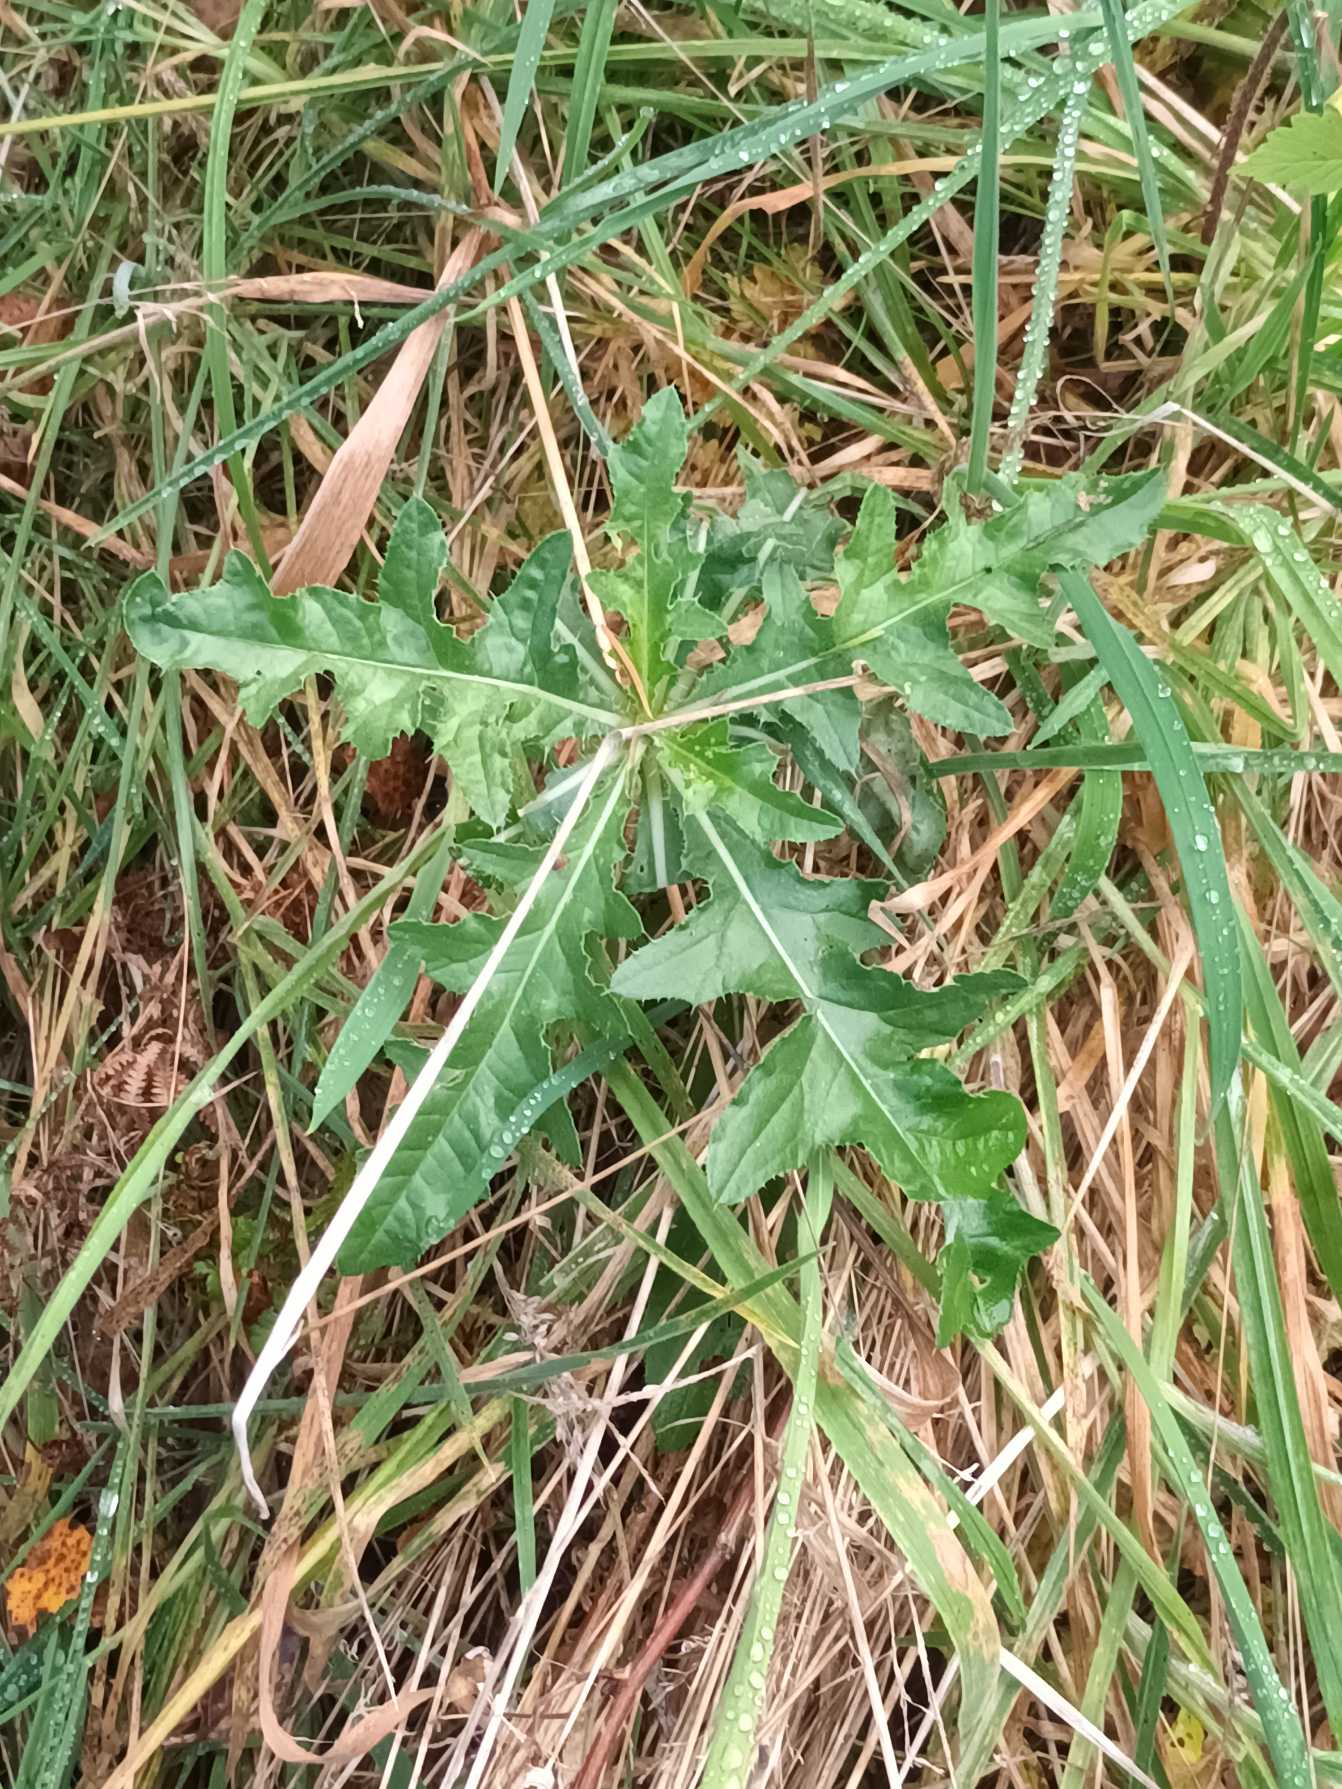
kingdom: Plantae
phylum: Tracheophyta
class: Magnoliopsida
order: Asterales
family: Asteraceae
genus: Cirsium
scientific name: Cirsium arvense
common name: Ager-tidsel
